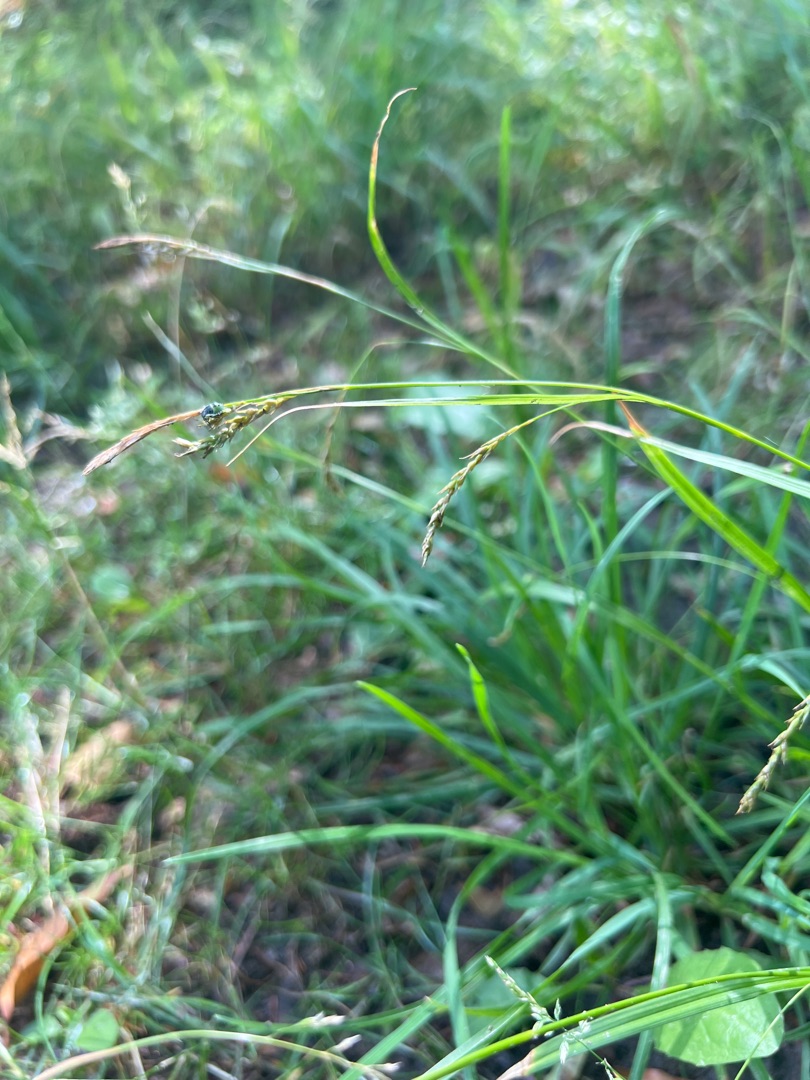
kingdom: Plantae
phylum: Tracheophyta
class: Liliopsida
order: Poales
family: Cyperaceae
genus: Carex
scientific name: Carex sylvatica
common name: Skov-star
